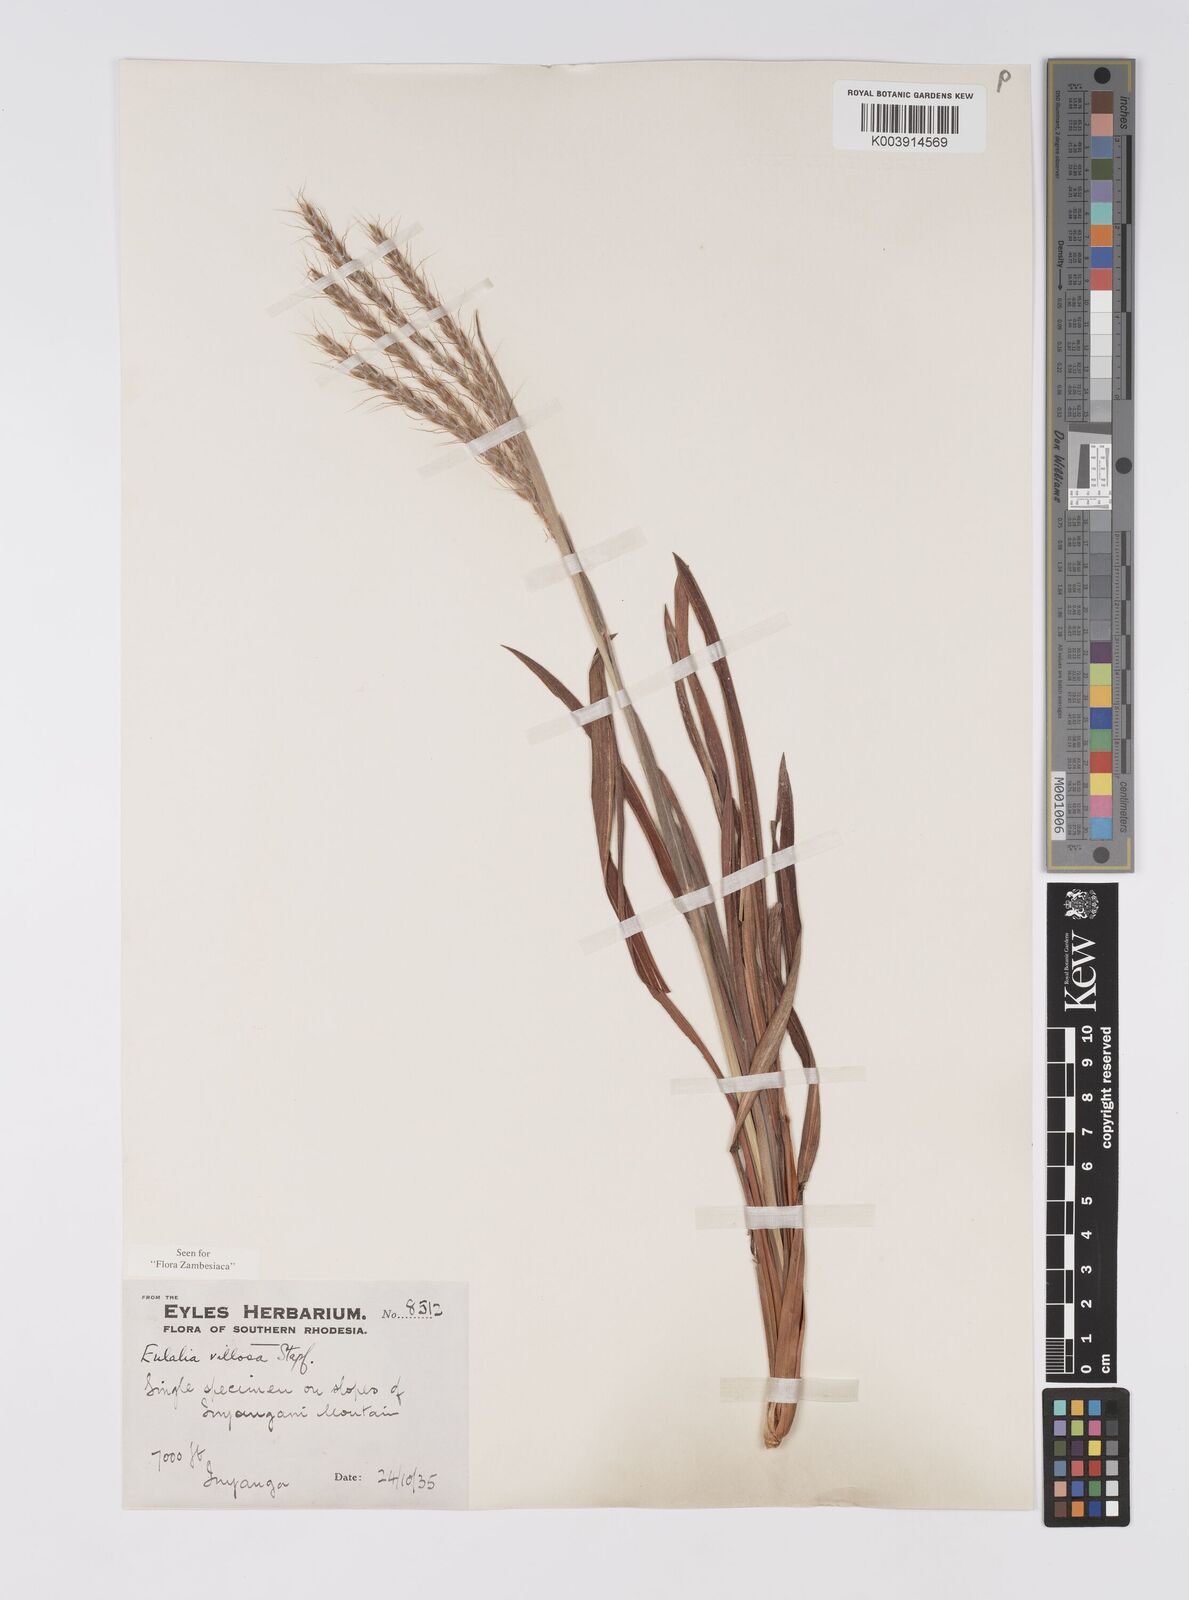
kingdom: Plantae
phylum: Tracheophyta
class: Liliopsida
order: Poales
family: Poaceae
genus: Eulalia
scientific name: Eulalia villosa
